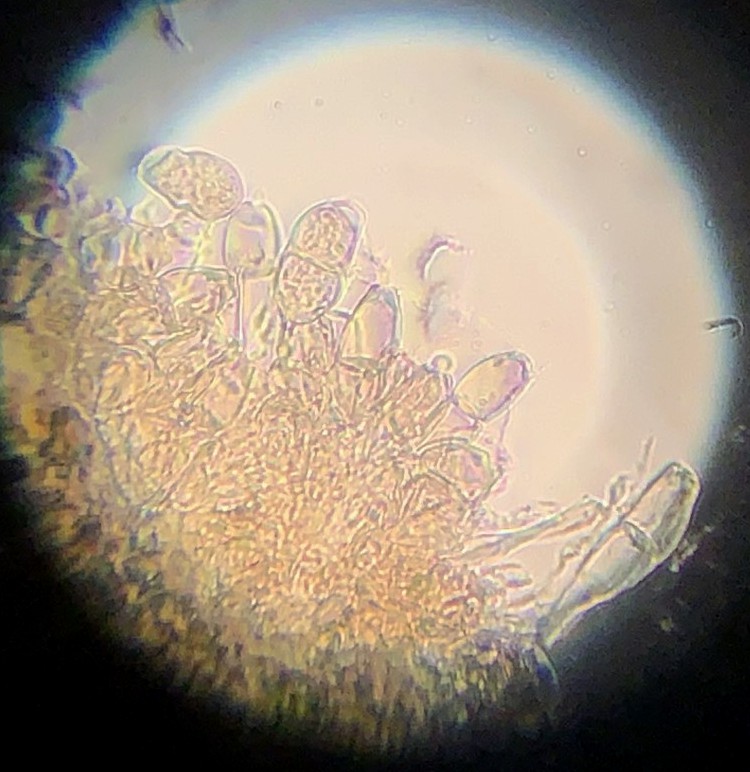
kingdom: Fungi
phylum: Basidiomycota
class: Pucciniomycetes
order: Pucciniales
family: Pucciniaceae
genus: Puccinia
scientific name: Puccinia veronicae
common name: Wood speedwell rust
